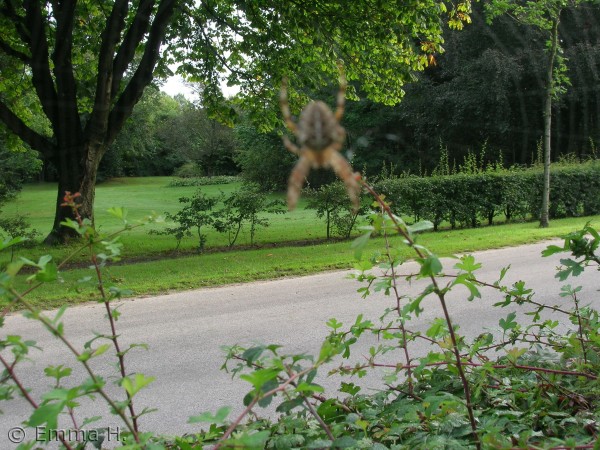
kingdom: Animalia
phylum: Arthropoda
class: Arachnida
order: Araneae
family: Araneidae
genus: Araneus
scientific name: Araneus diadematus
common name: Korsedderkop
